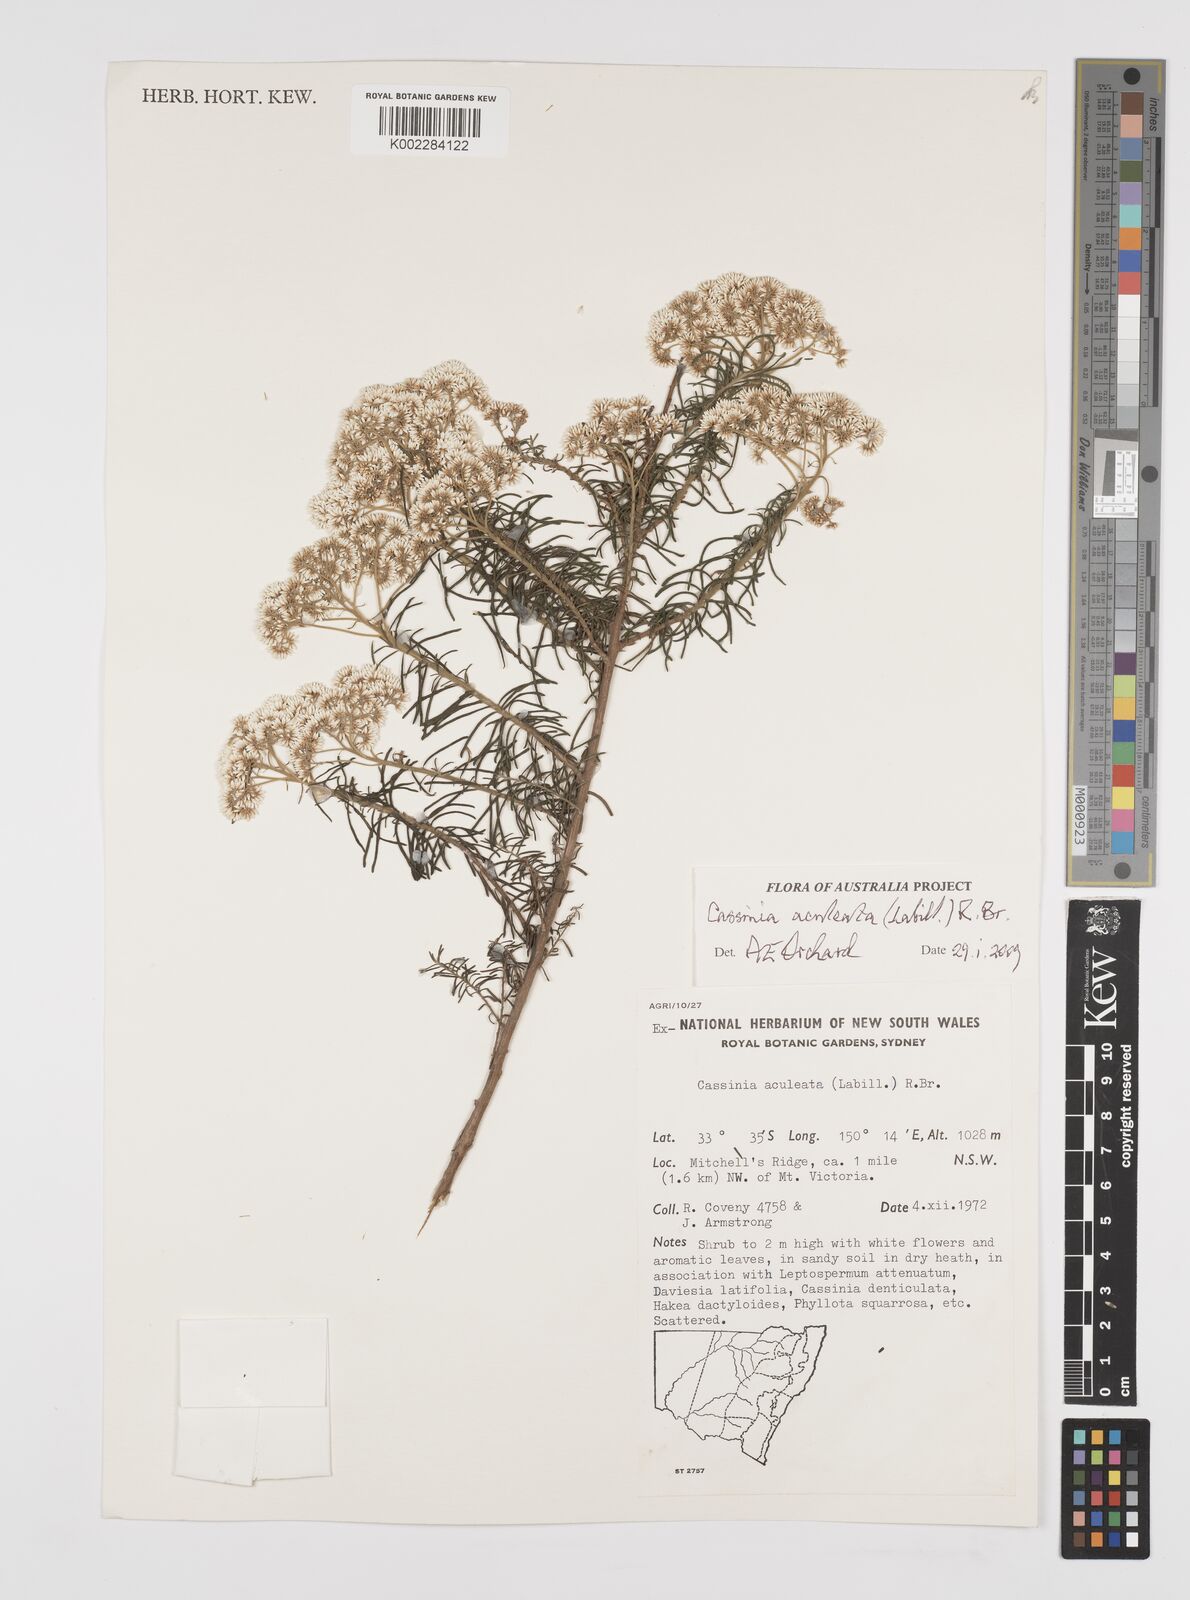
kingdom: Plantae
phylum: Tracheophyta
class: Magnoliopsida
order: Asterales
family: Asteraceae
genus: Cassinia
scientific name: Cassinia aculeata
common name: Australian tauhinu
